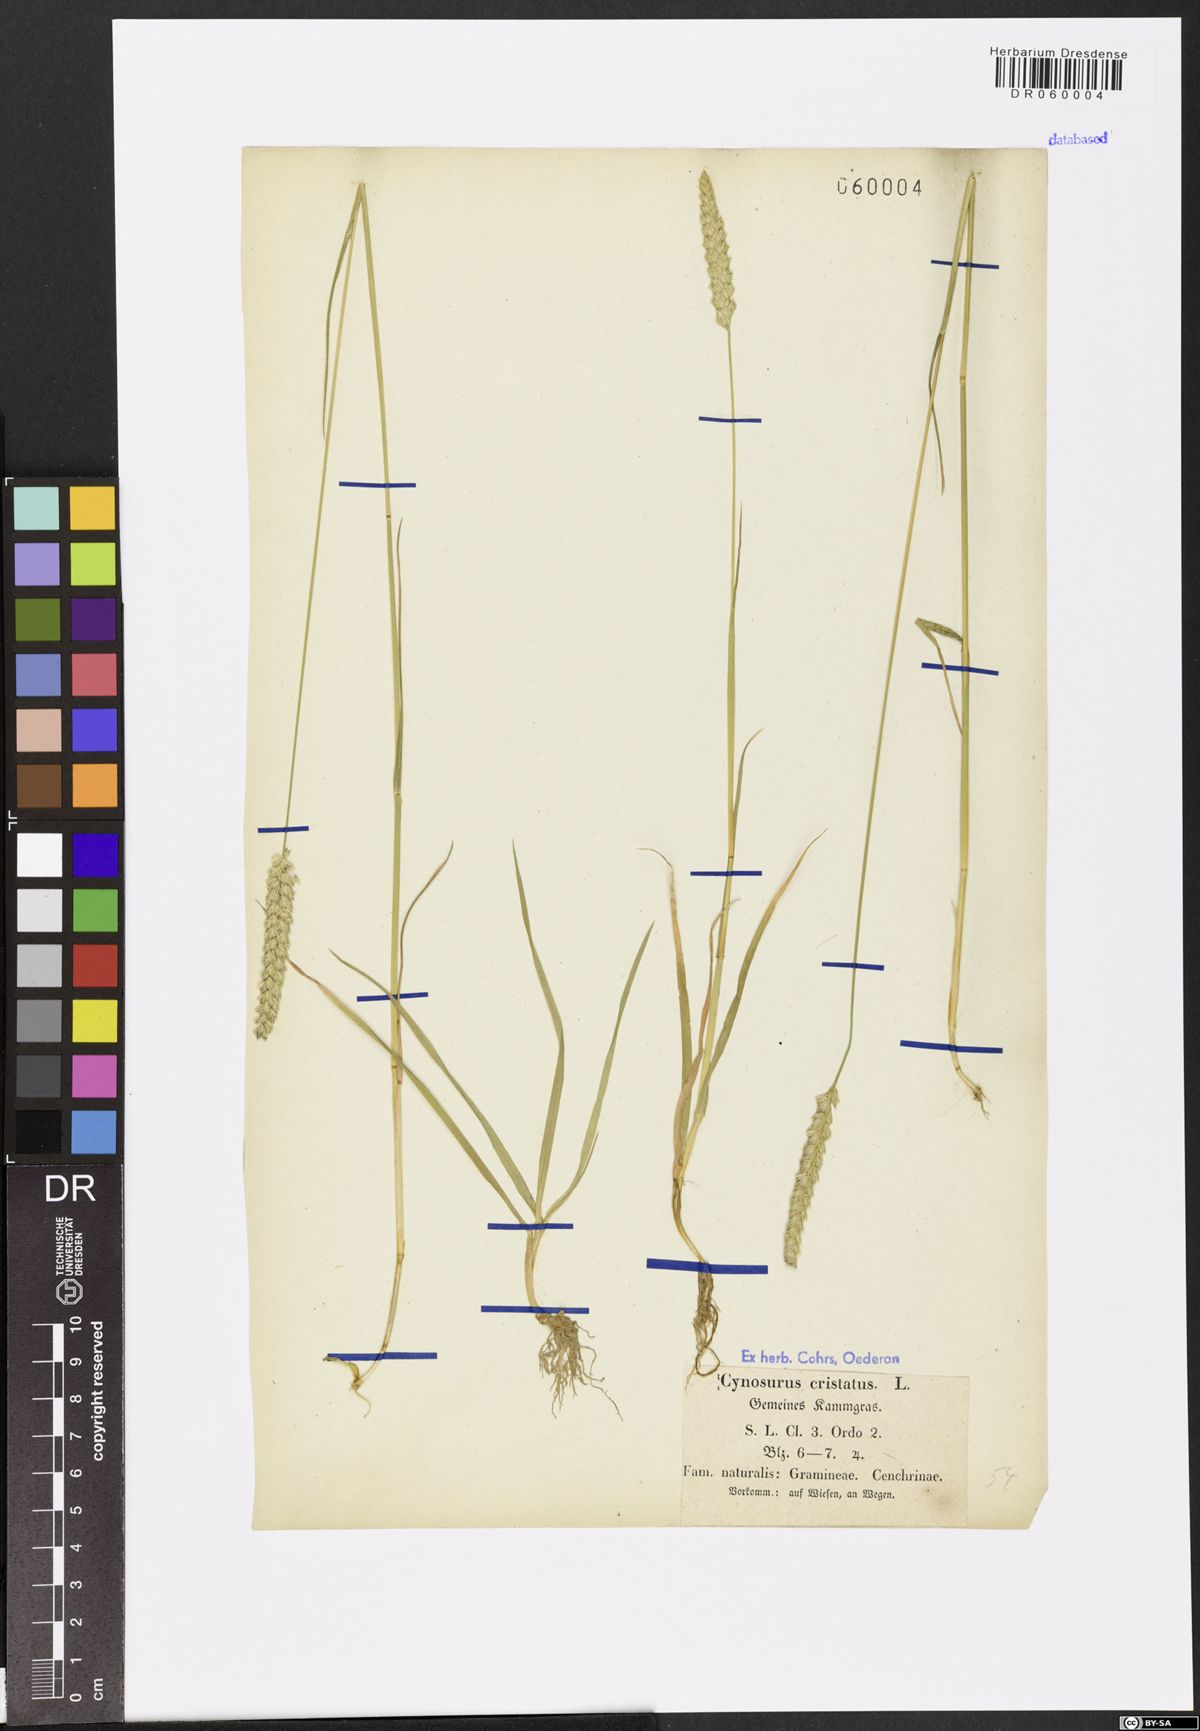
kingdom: Plantae
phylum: Tracheophyta
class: Liliopsida
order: Poales
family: Poaceae
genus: Cynosurus
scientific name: Cynosurus cristatus
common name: Crested dog's-tail
